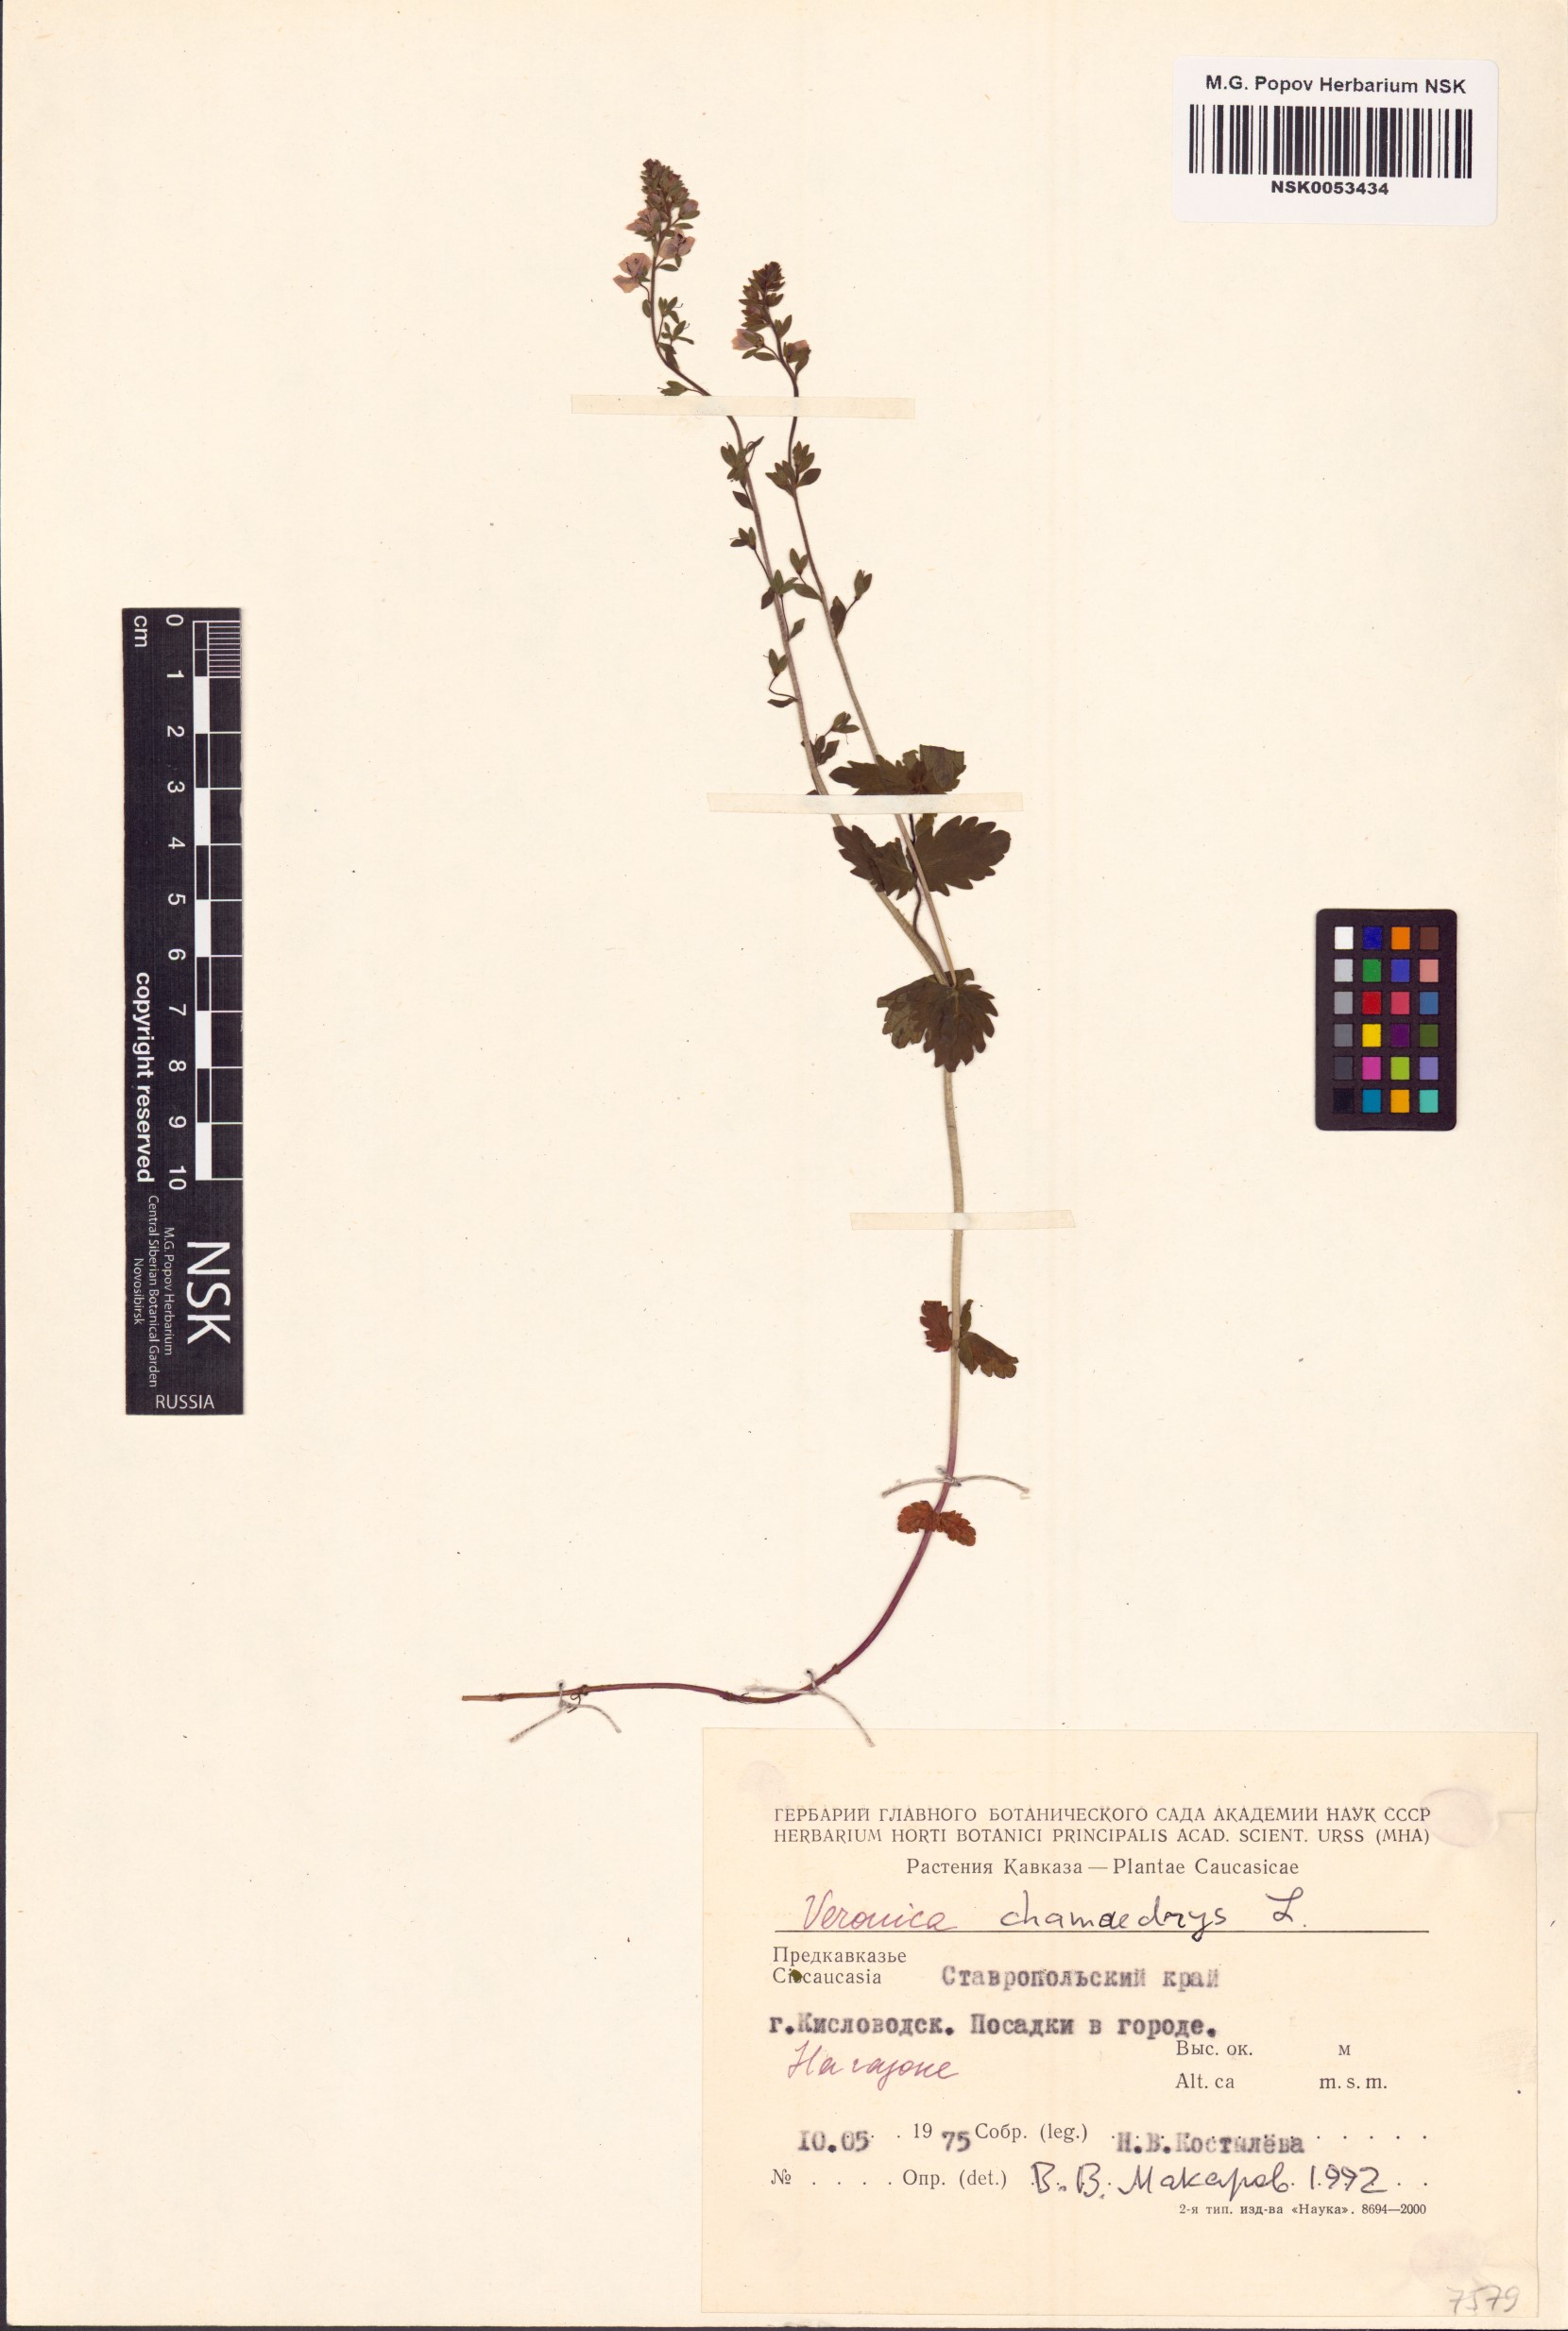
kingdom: Plantae
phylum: Tracheophyta
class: Magnoliopsida
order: Lamiales
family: Plantaginaceae
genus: Veronica
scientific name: Veronica chamaedrys
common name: Germander speedwell
